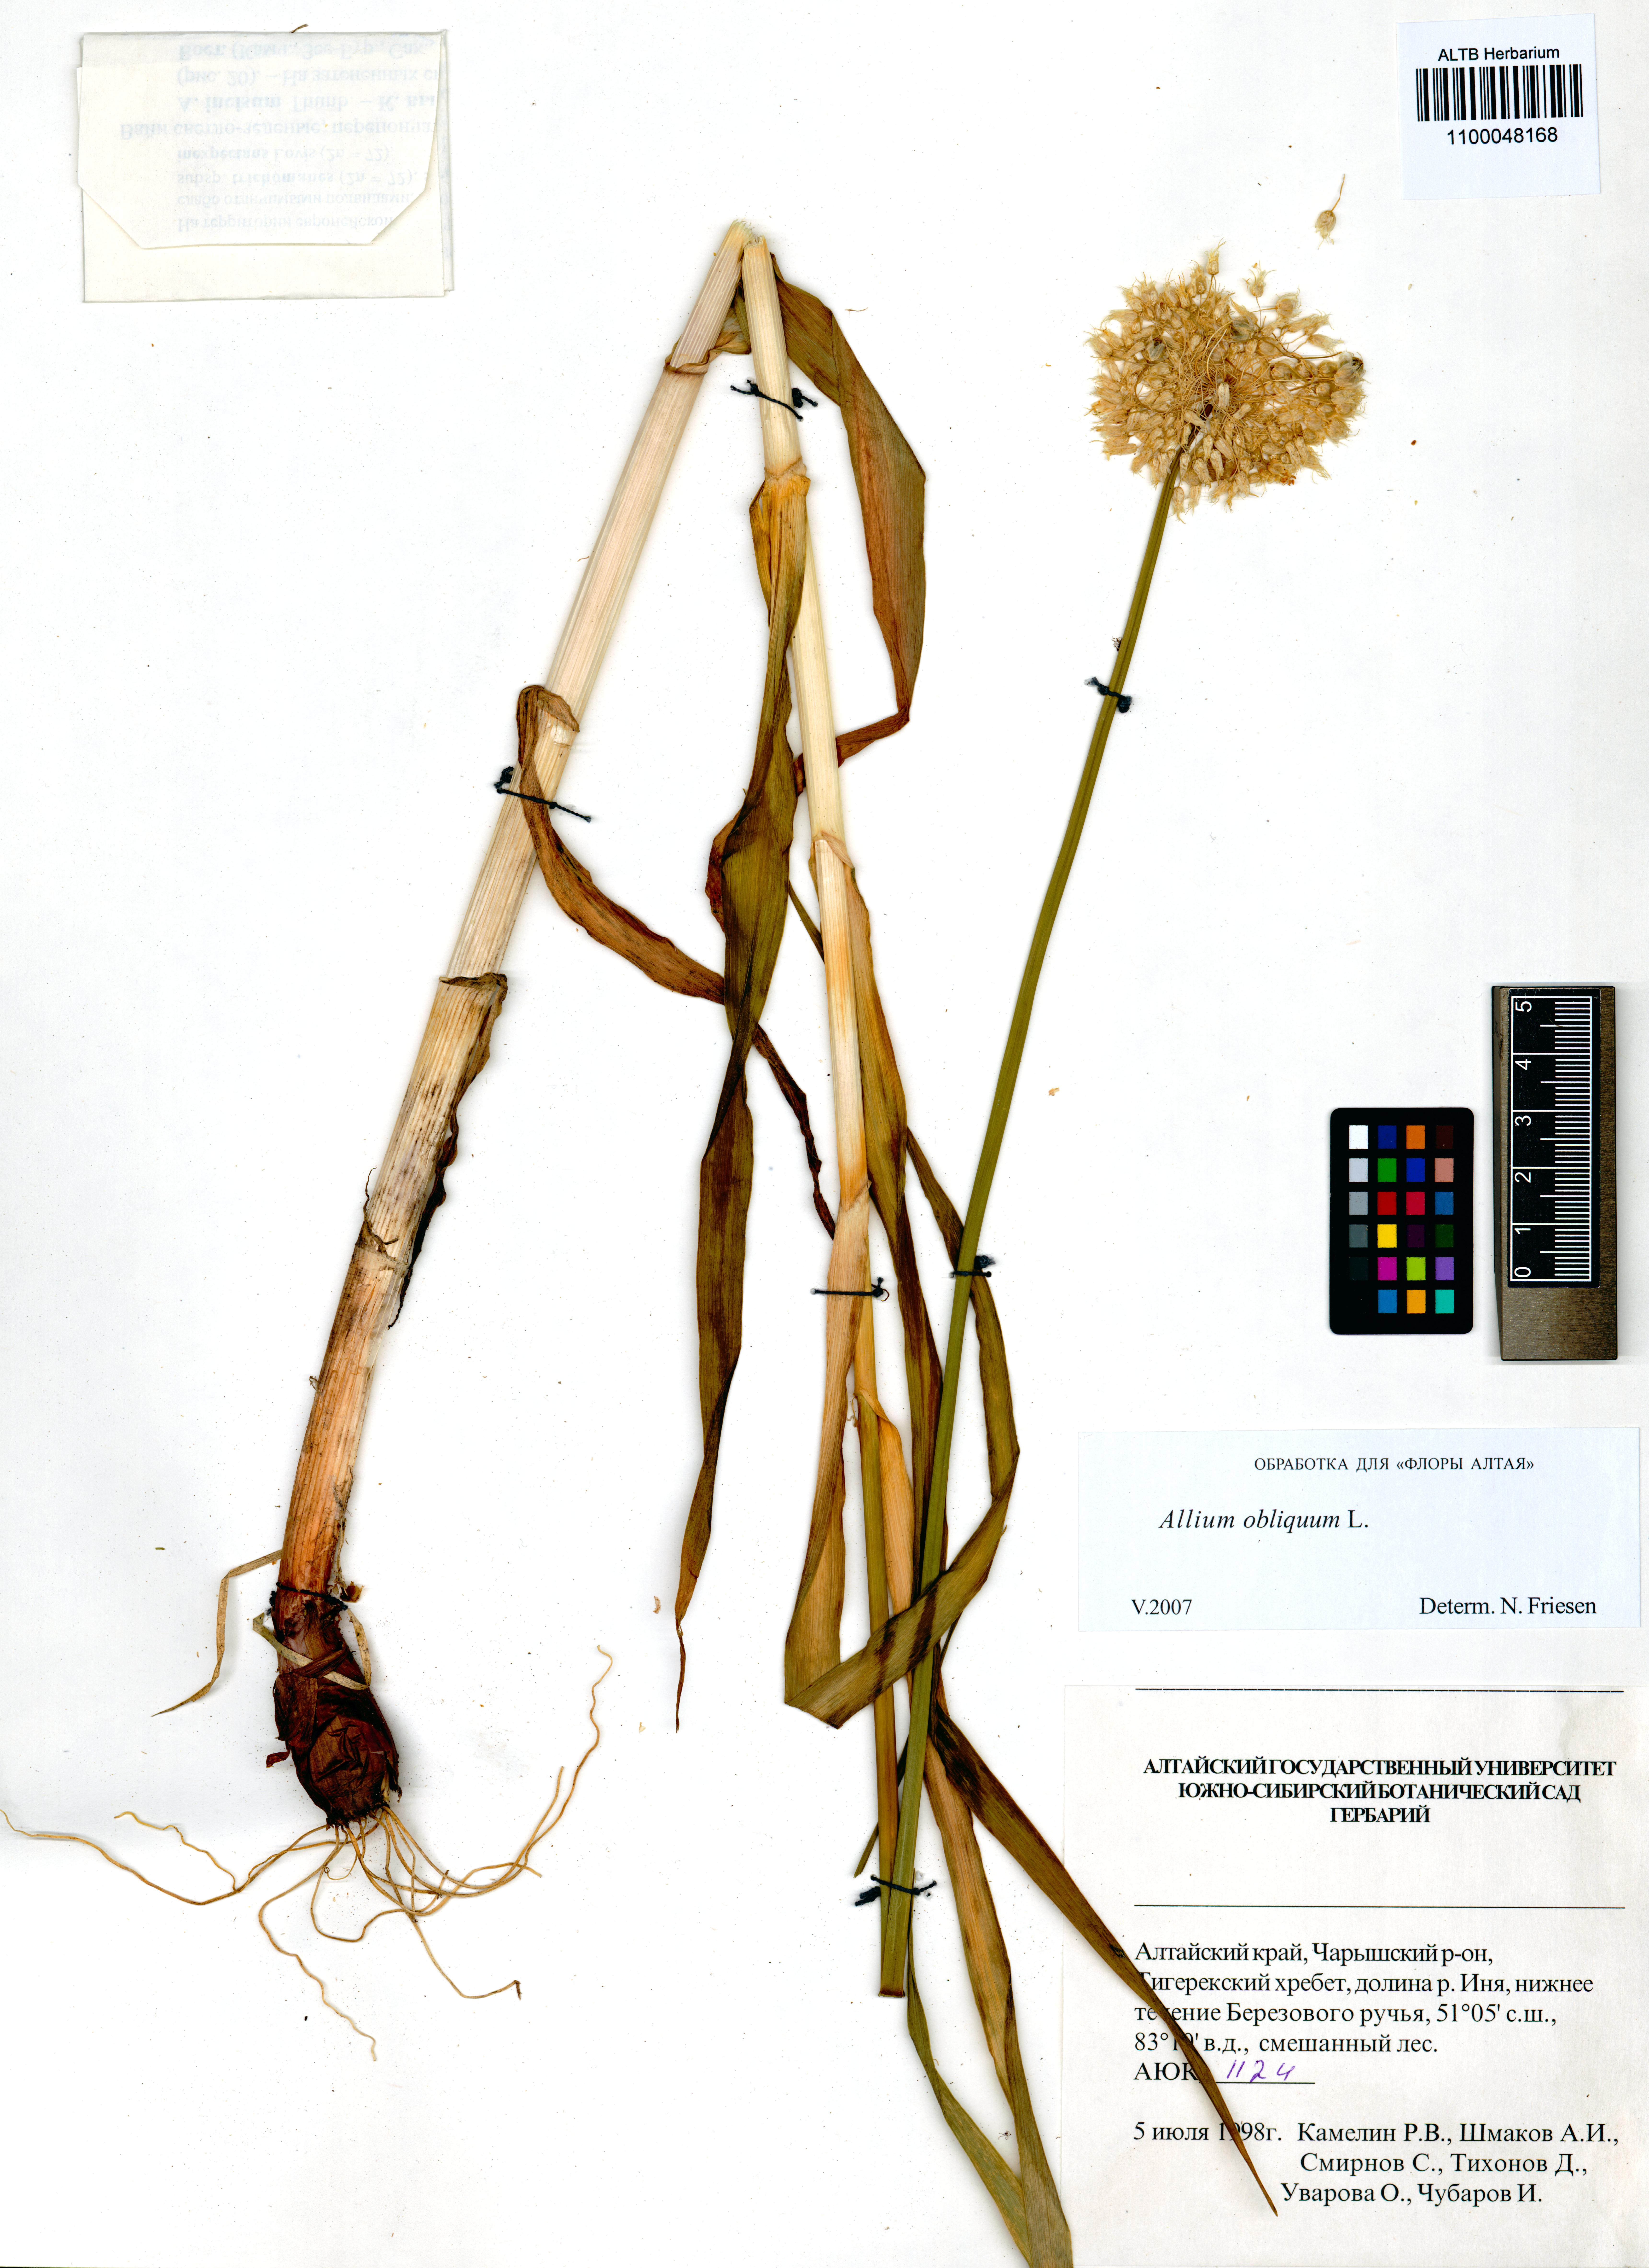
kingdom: Plantae
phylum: Tracheophyta
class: Liliopsida
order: Asparagales
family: Amaryllidaceae
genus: Allium
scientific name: Allium obliquum
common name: Oblique onion
